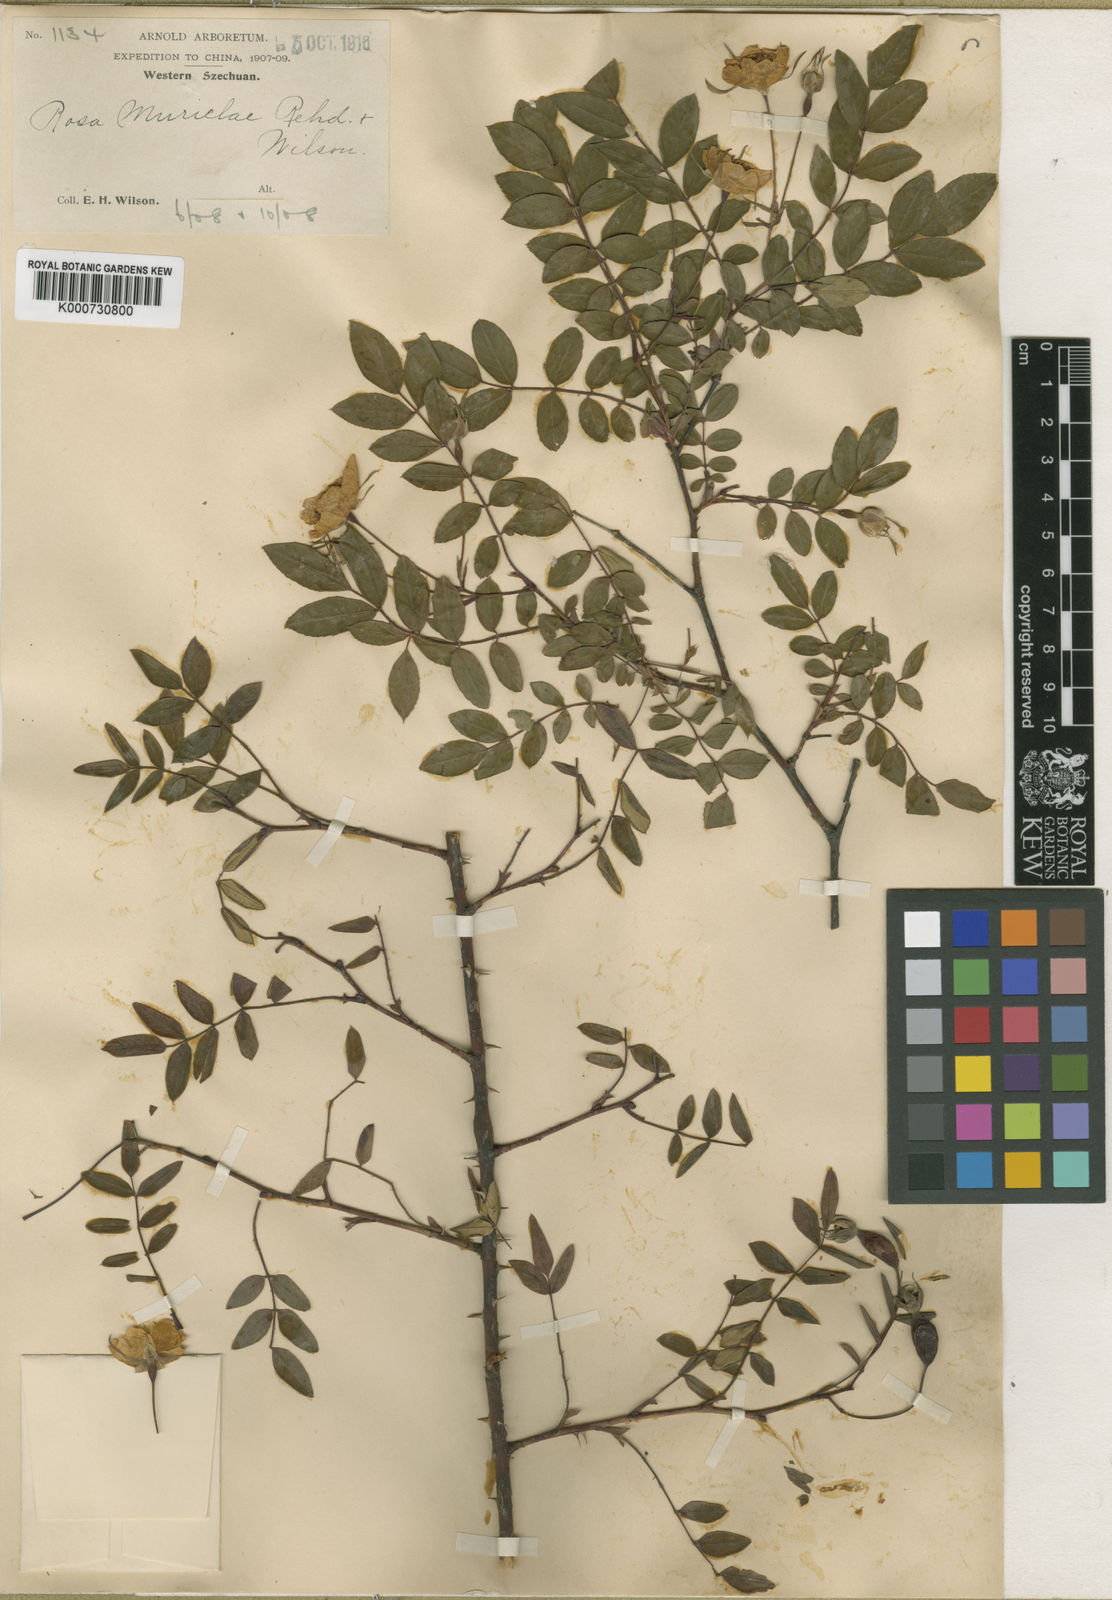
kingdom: Plantae
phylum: Tracheophyta
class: Magnoliopsida
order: Rosales
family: Rosaceae
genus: Rosa
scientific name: Rosa murielae
